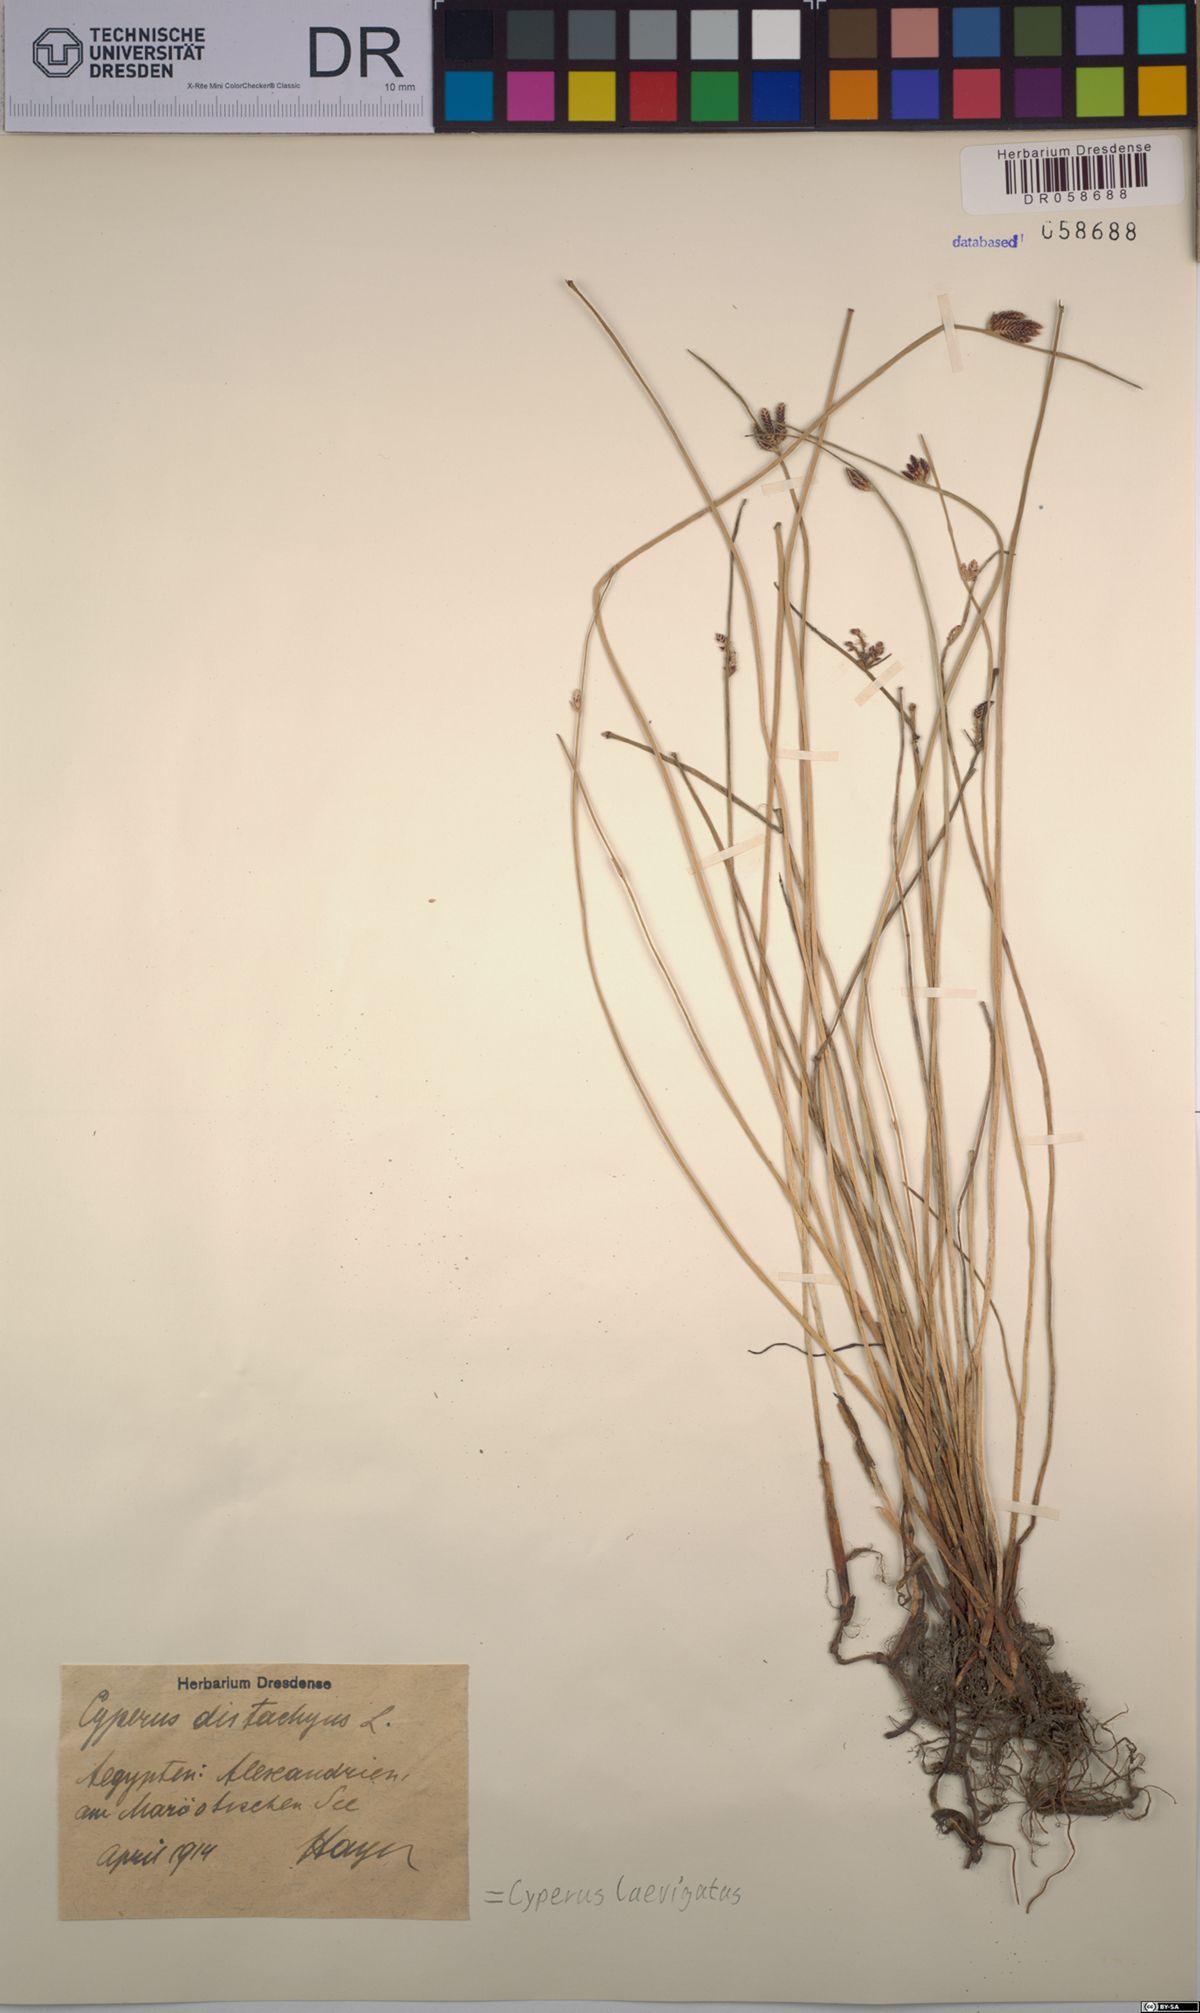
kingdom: Plantae
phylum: Tracheophyta
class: Liliopsida
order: Poales
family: Cyperaceae
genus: Cyperus
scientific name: Cyperus laevigatus
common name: Smooth flat sedge
